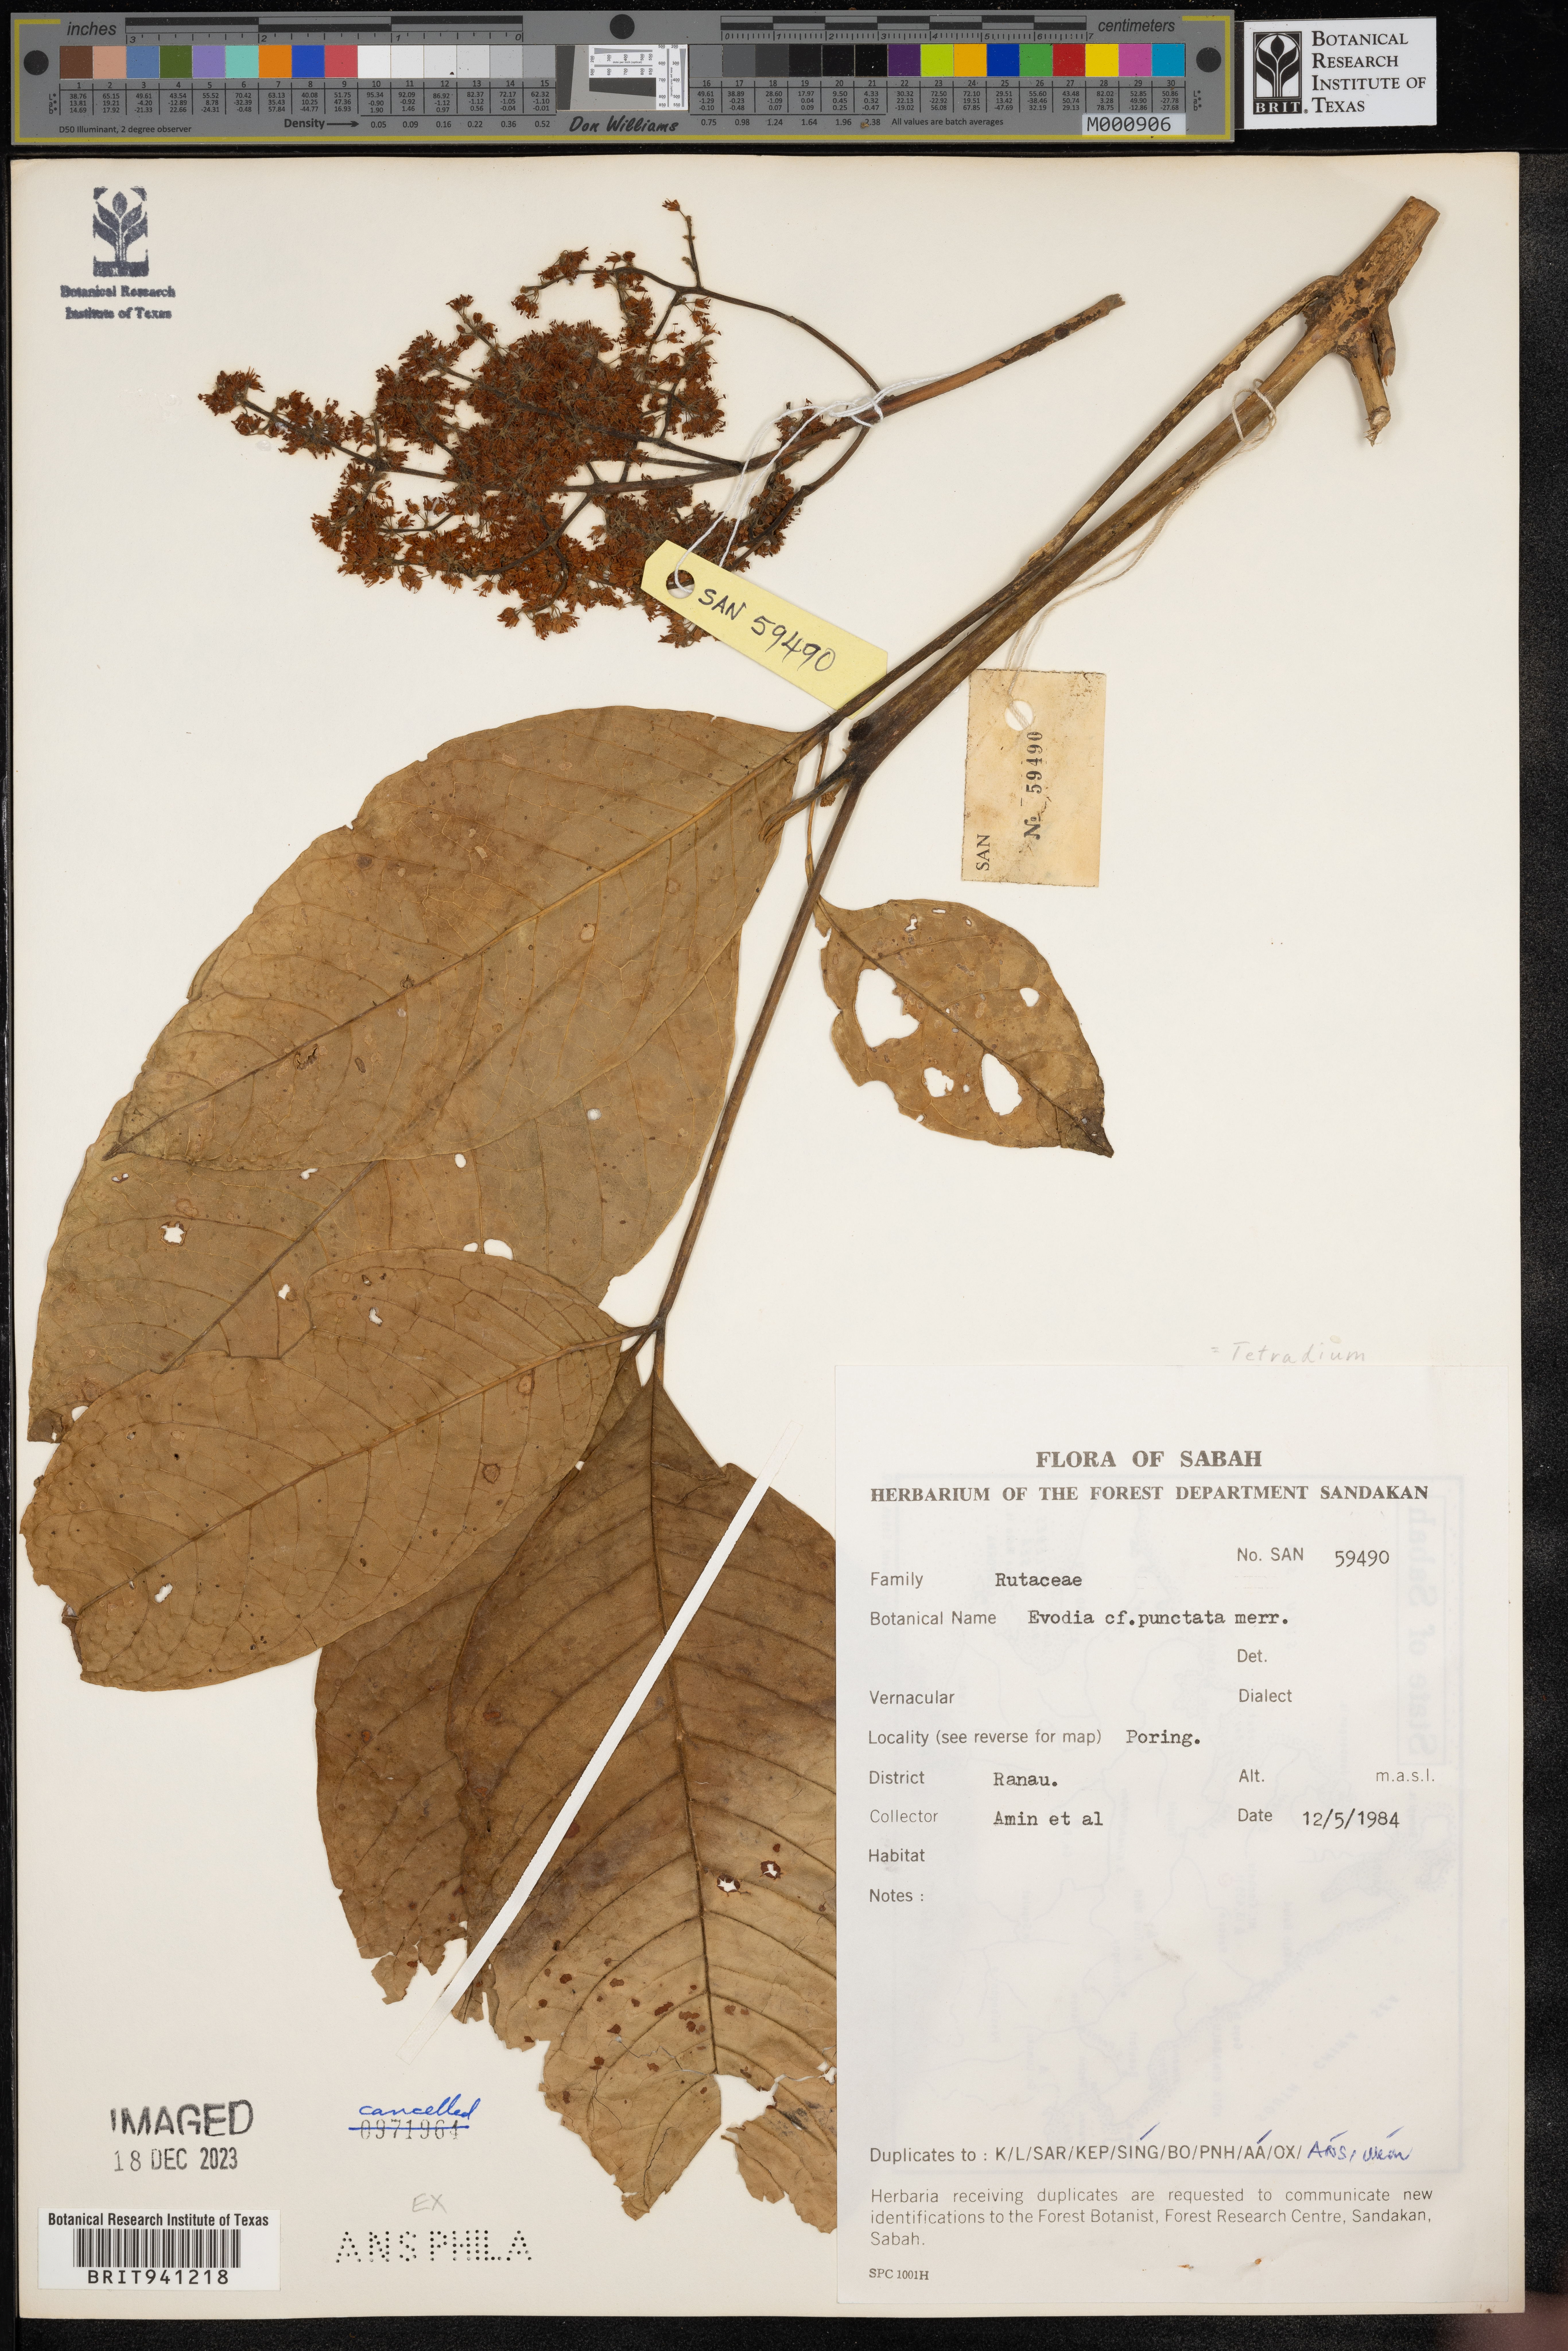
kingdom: Plantae
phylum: Tracheophyta
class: Magnoliopsida
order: Sapindales
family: Rutaceae
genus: Tetradium
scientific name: Tetradium
